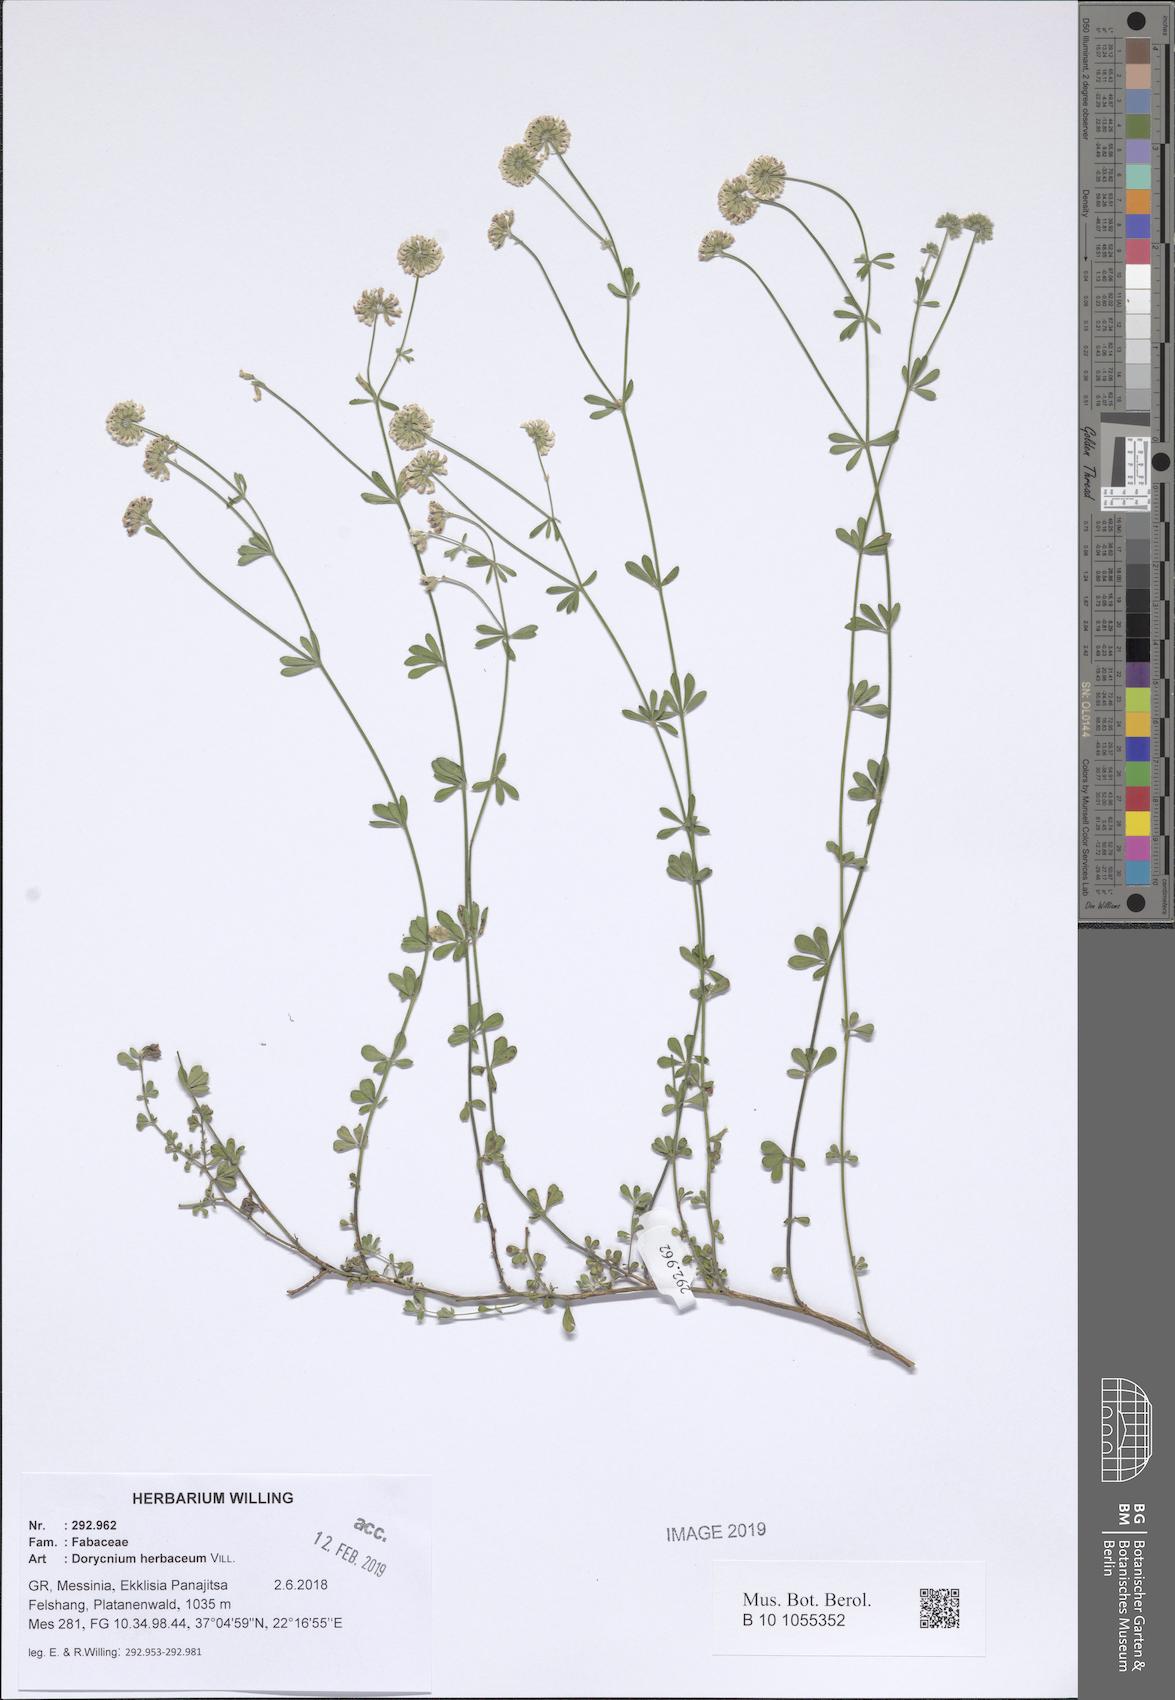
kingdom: Plantae
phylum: Tracheophyta
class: Magnoliopsida
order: Fabales
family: Fabaceae
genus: Lotus
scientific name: Lotus herbaceus
